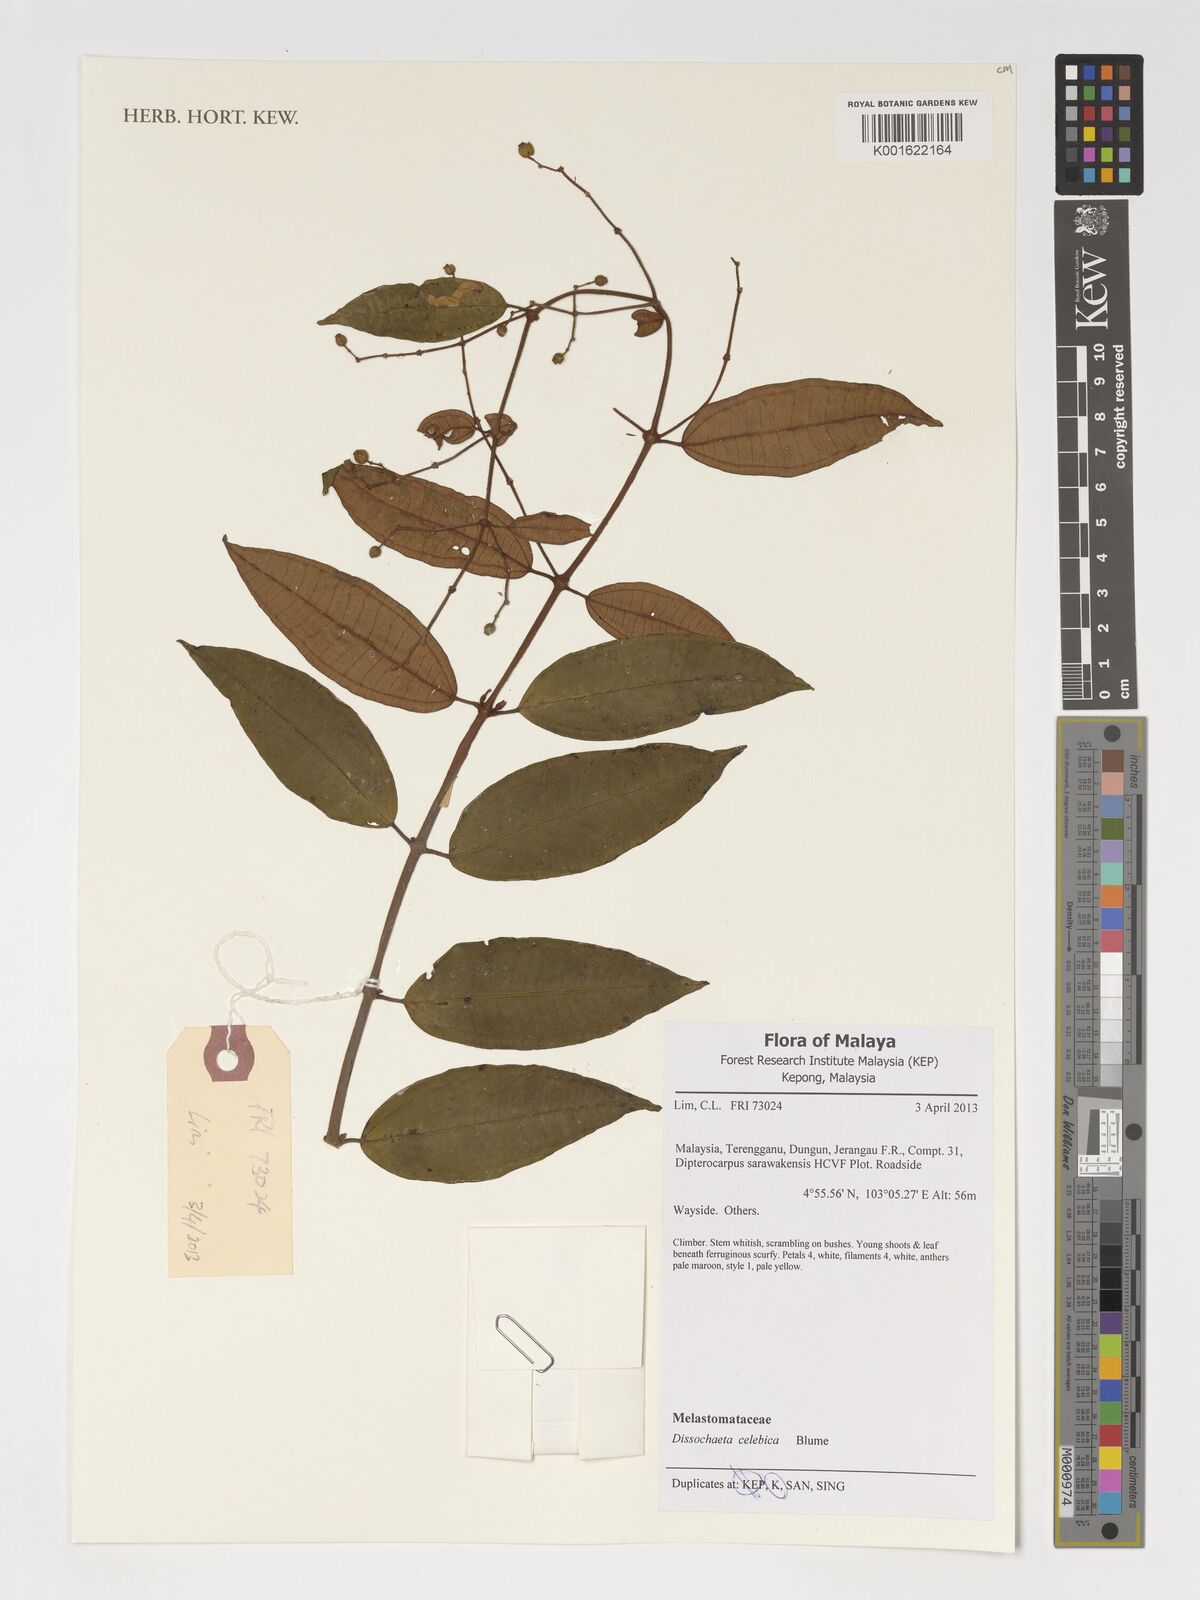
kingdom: Plantae
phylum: Tracheophyta
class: Magnoliopsida
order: Myrtales
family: Melastomataceae
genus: Dissochaeta
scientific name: Dissochaeta celebica
